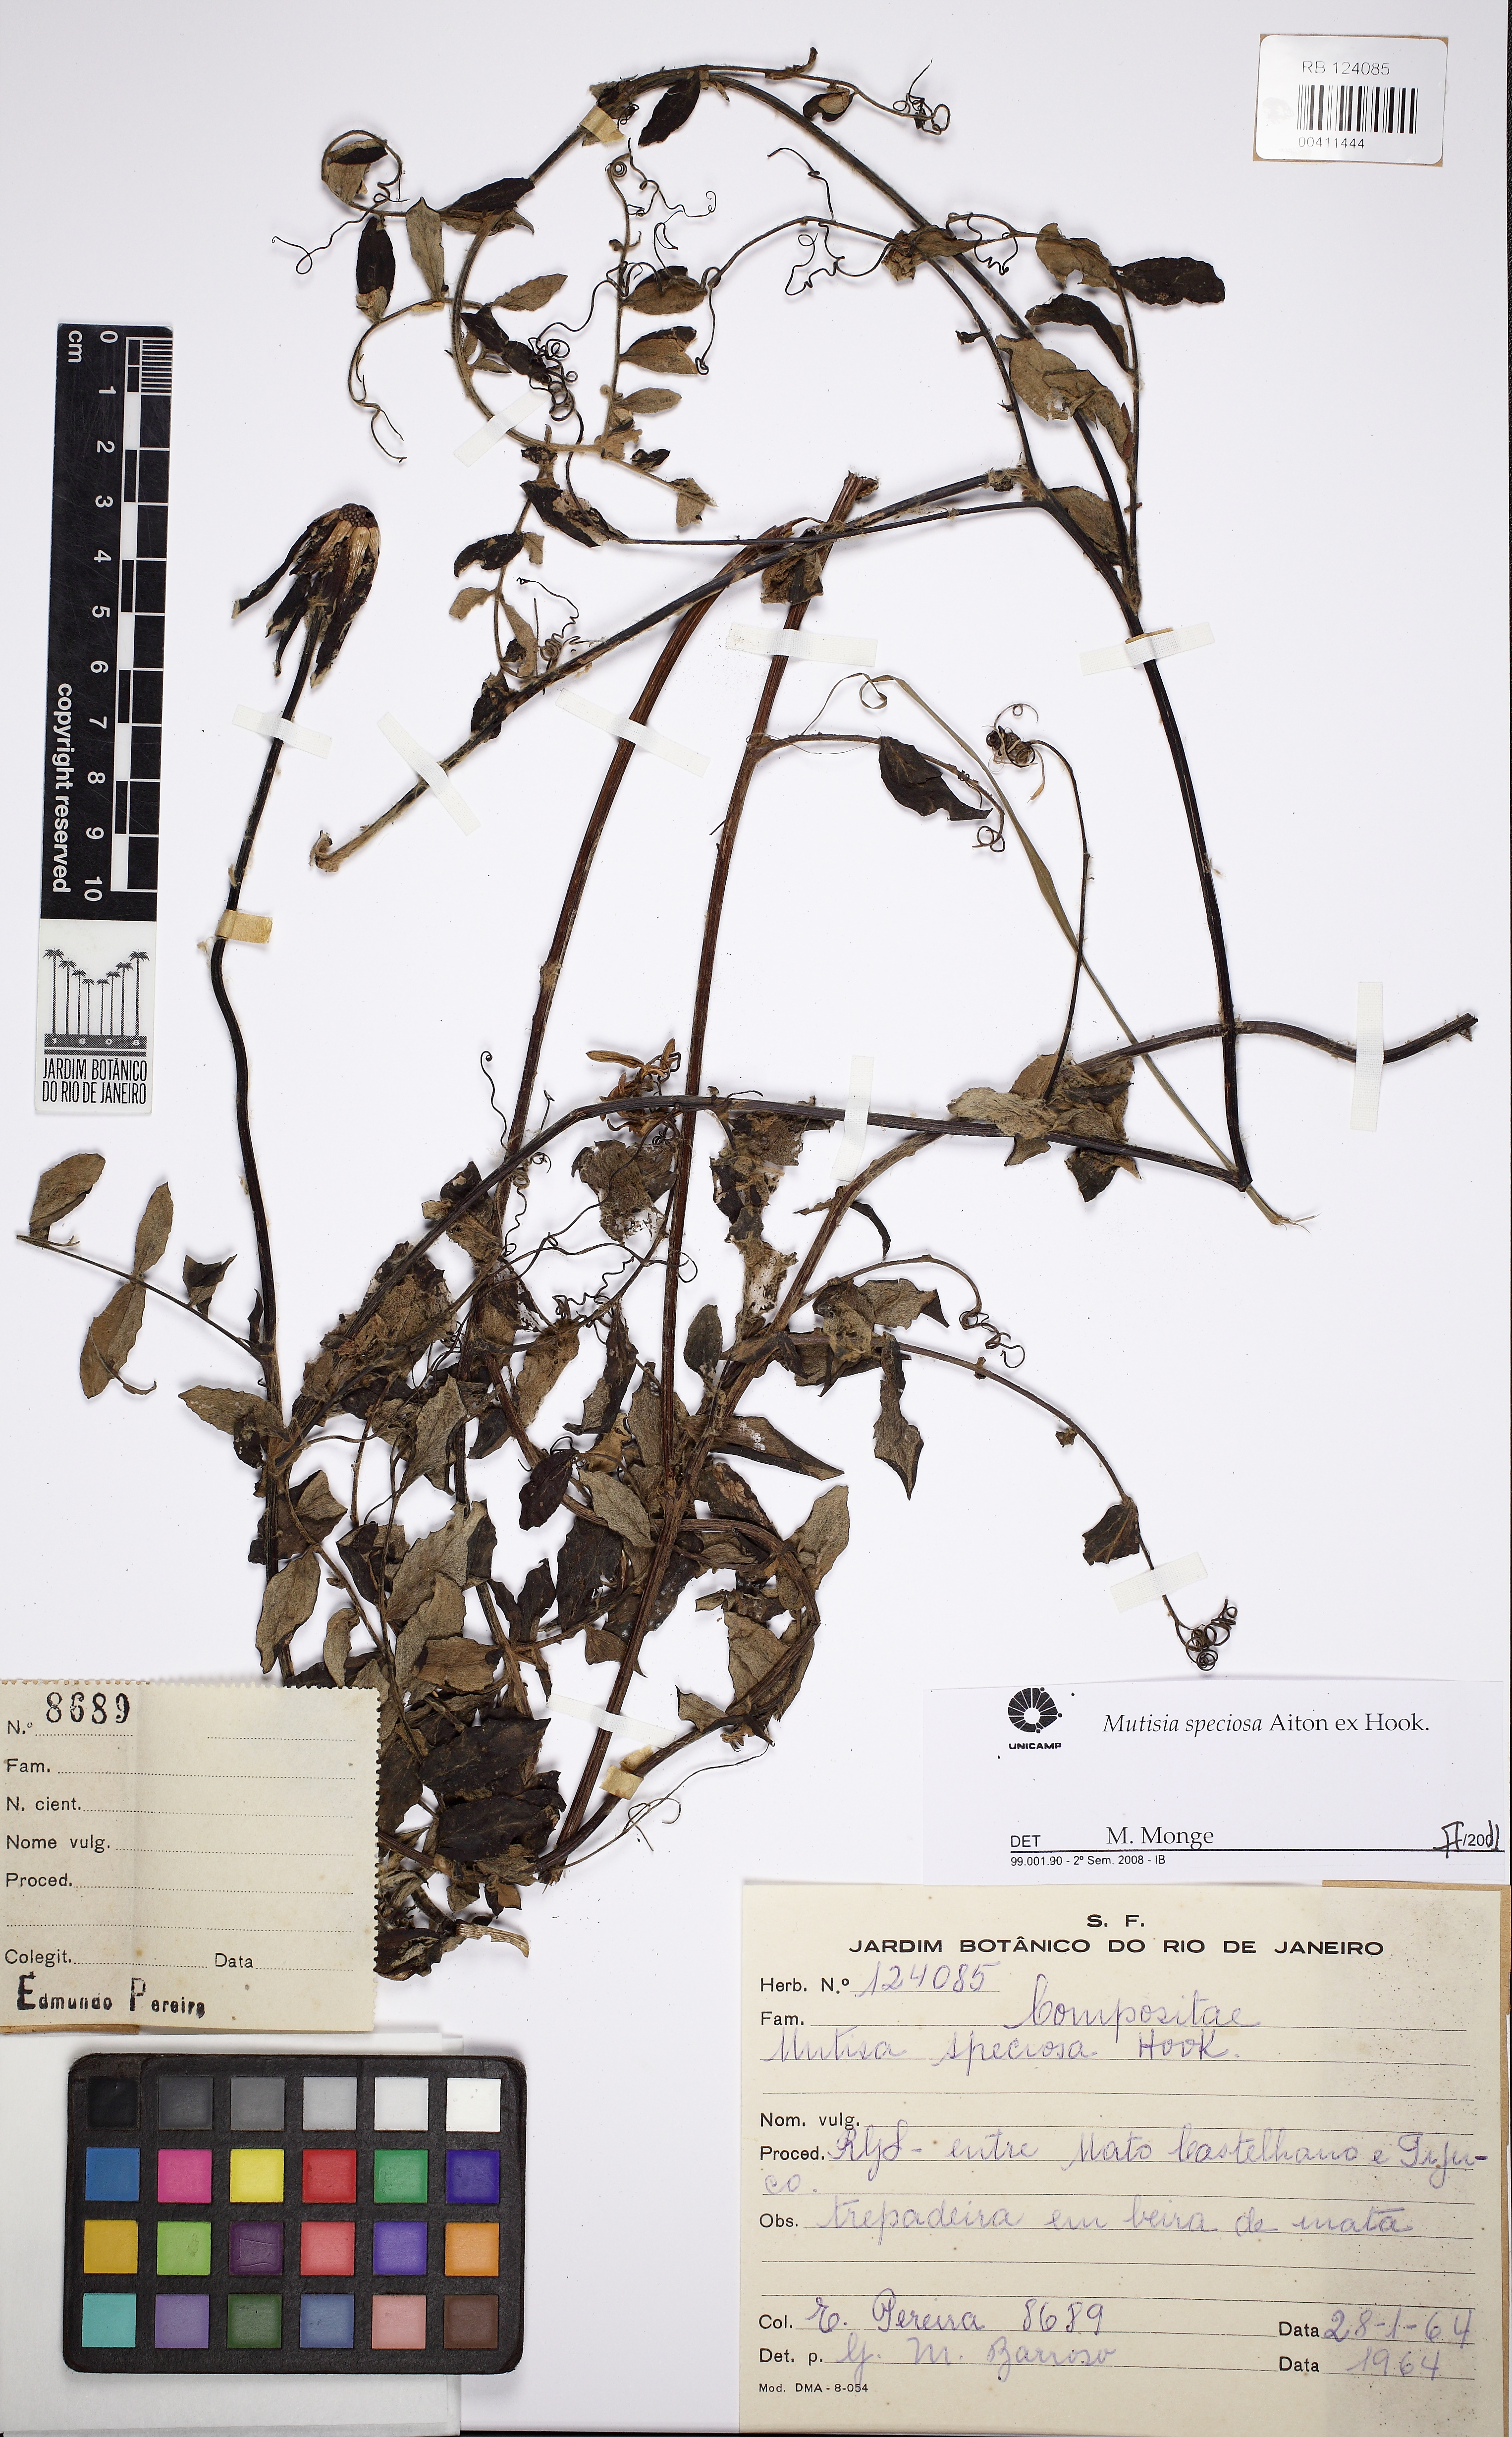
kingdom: Plantae
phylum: Tracheophyta
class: Magnoliopsida
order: Asterales
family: Asteraceae
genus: Mutisia
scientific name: Mutisia speciosa
